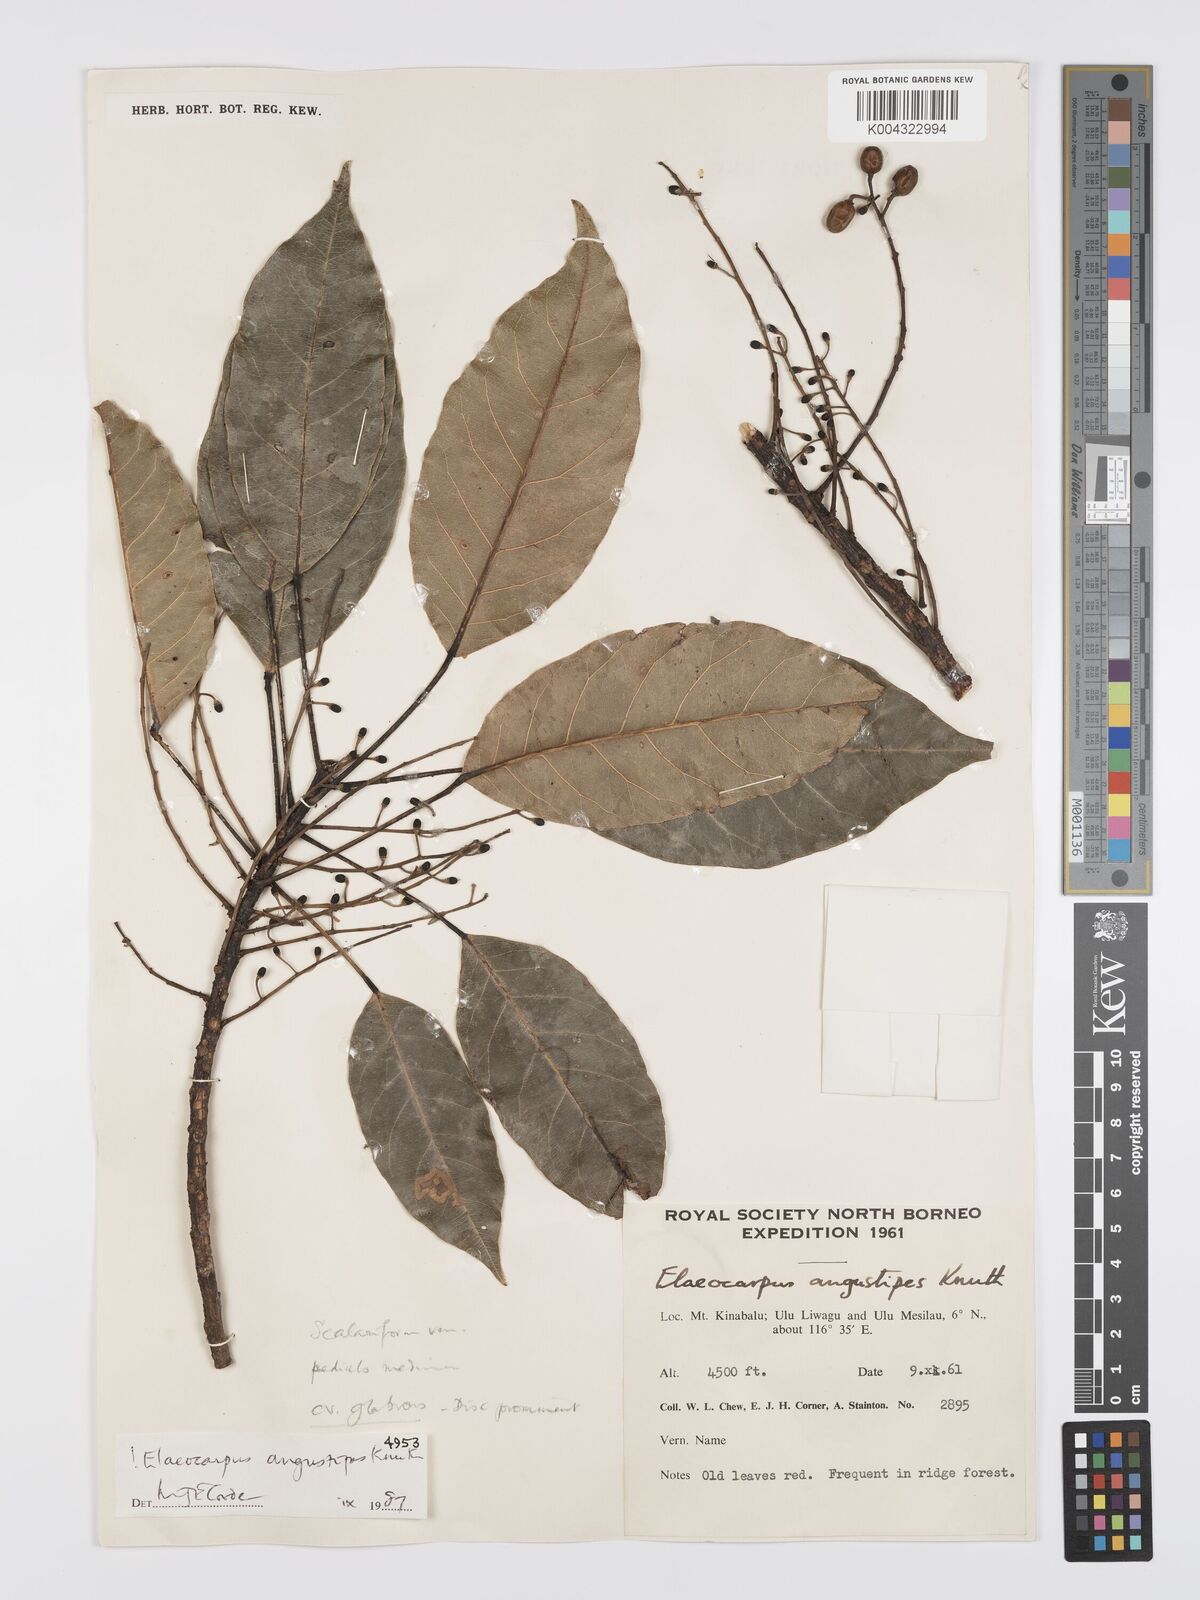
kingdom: Plantae
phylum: Tracheophyta
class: Magnoliopsida
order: Oxalidales
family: Elaeocarpaceae
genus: Elaeocarpus
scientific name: Elaeocarpus angustipes
